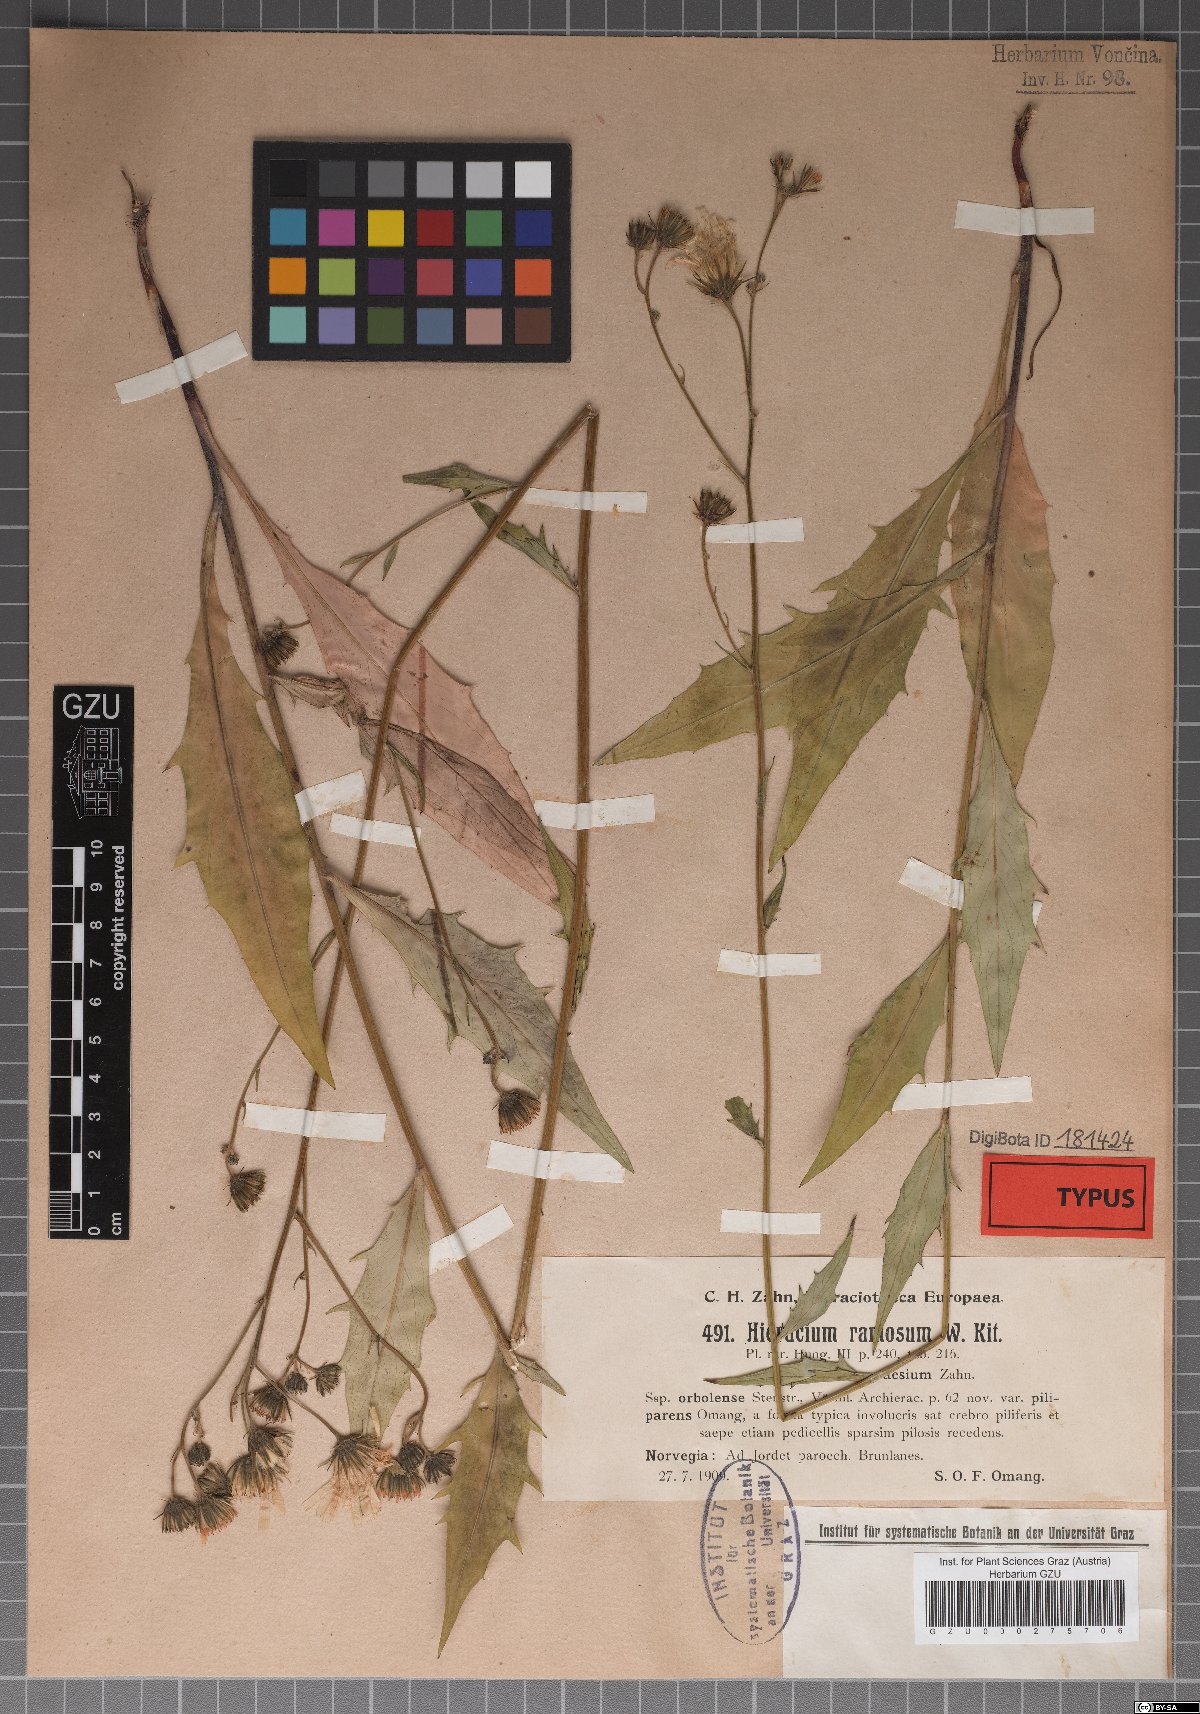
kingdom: Plantae
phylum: Tracheophyta
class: Magnoliopsida
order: Asterales
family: Asteraceae
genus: Hieracium
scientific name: Hieracium ramosum
